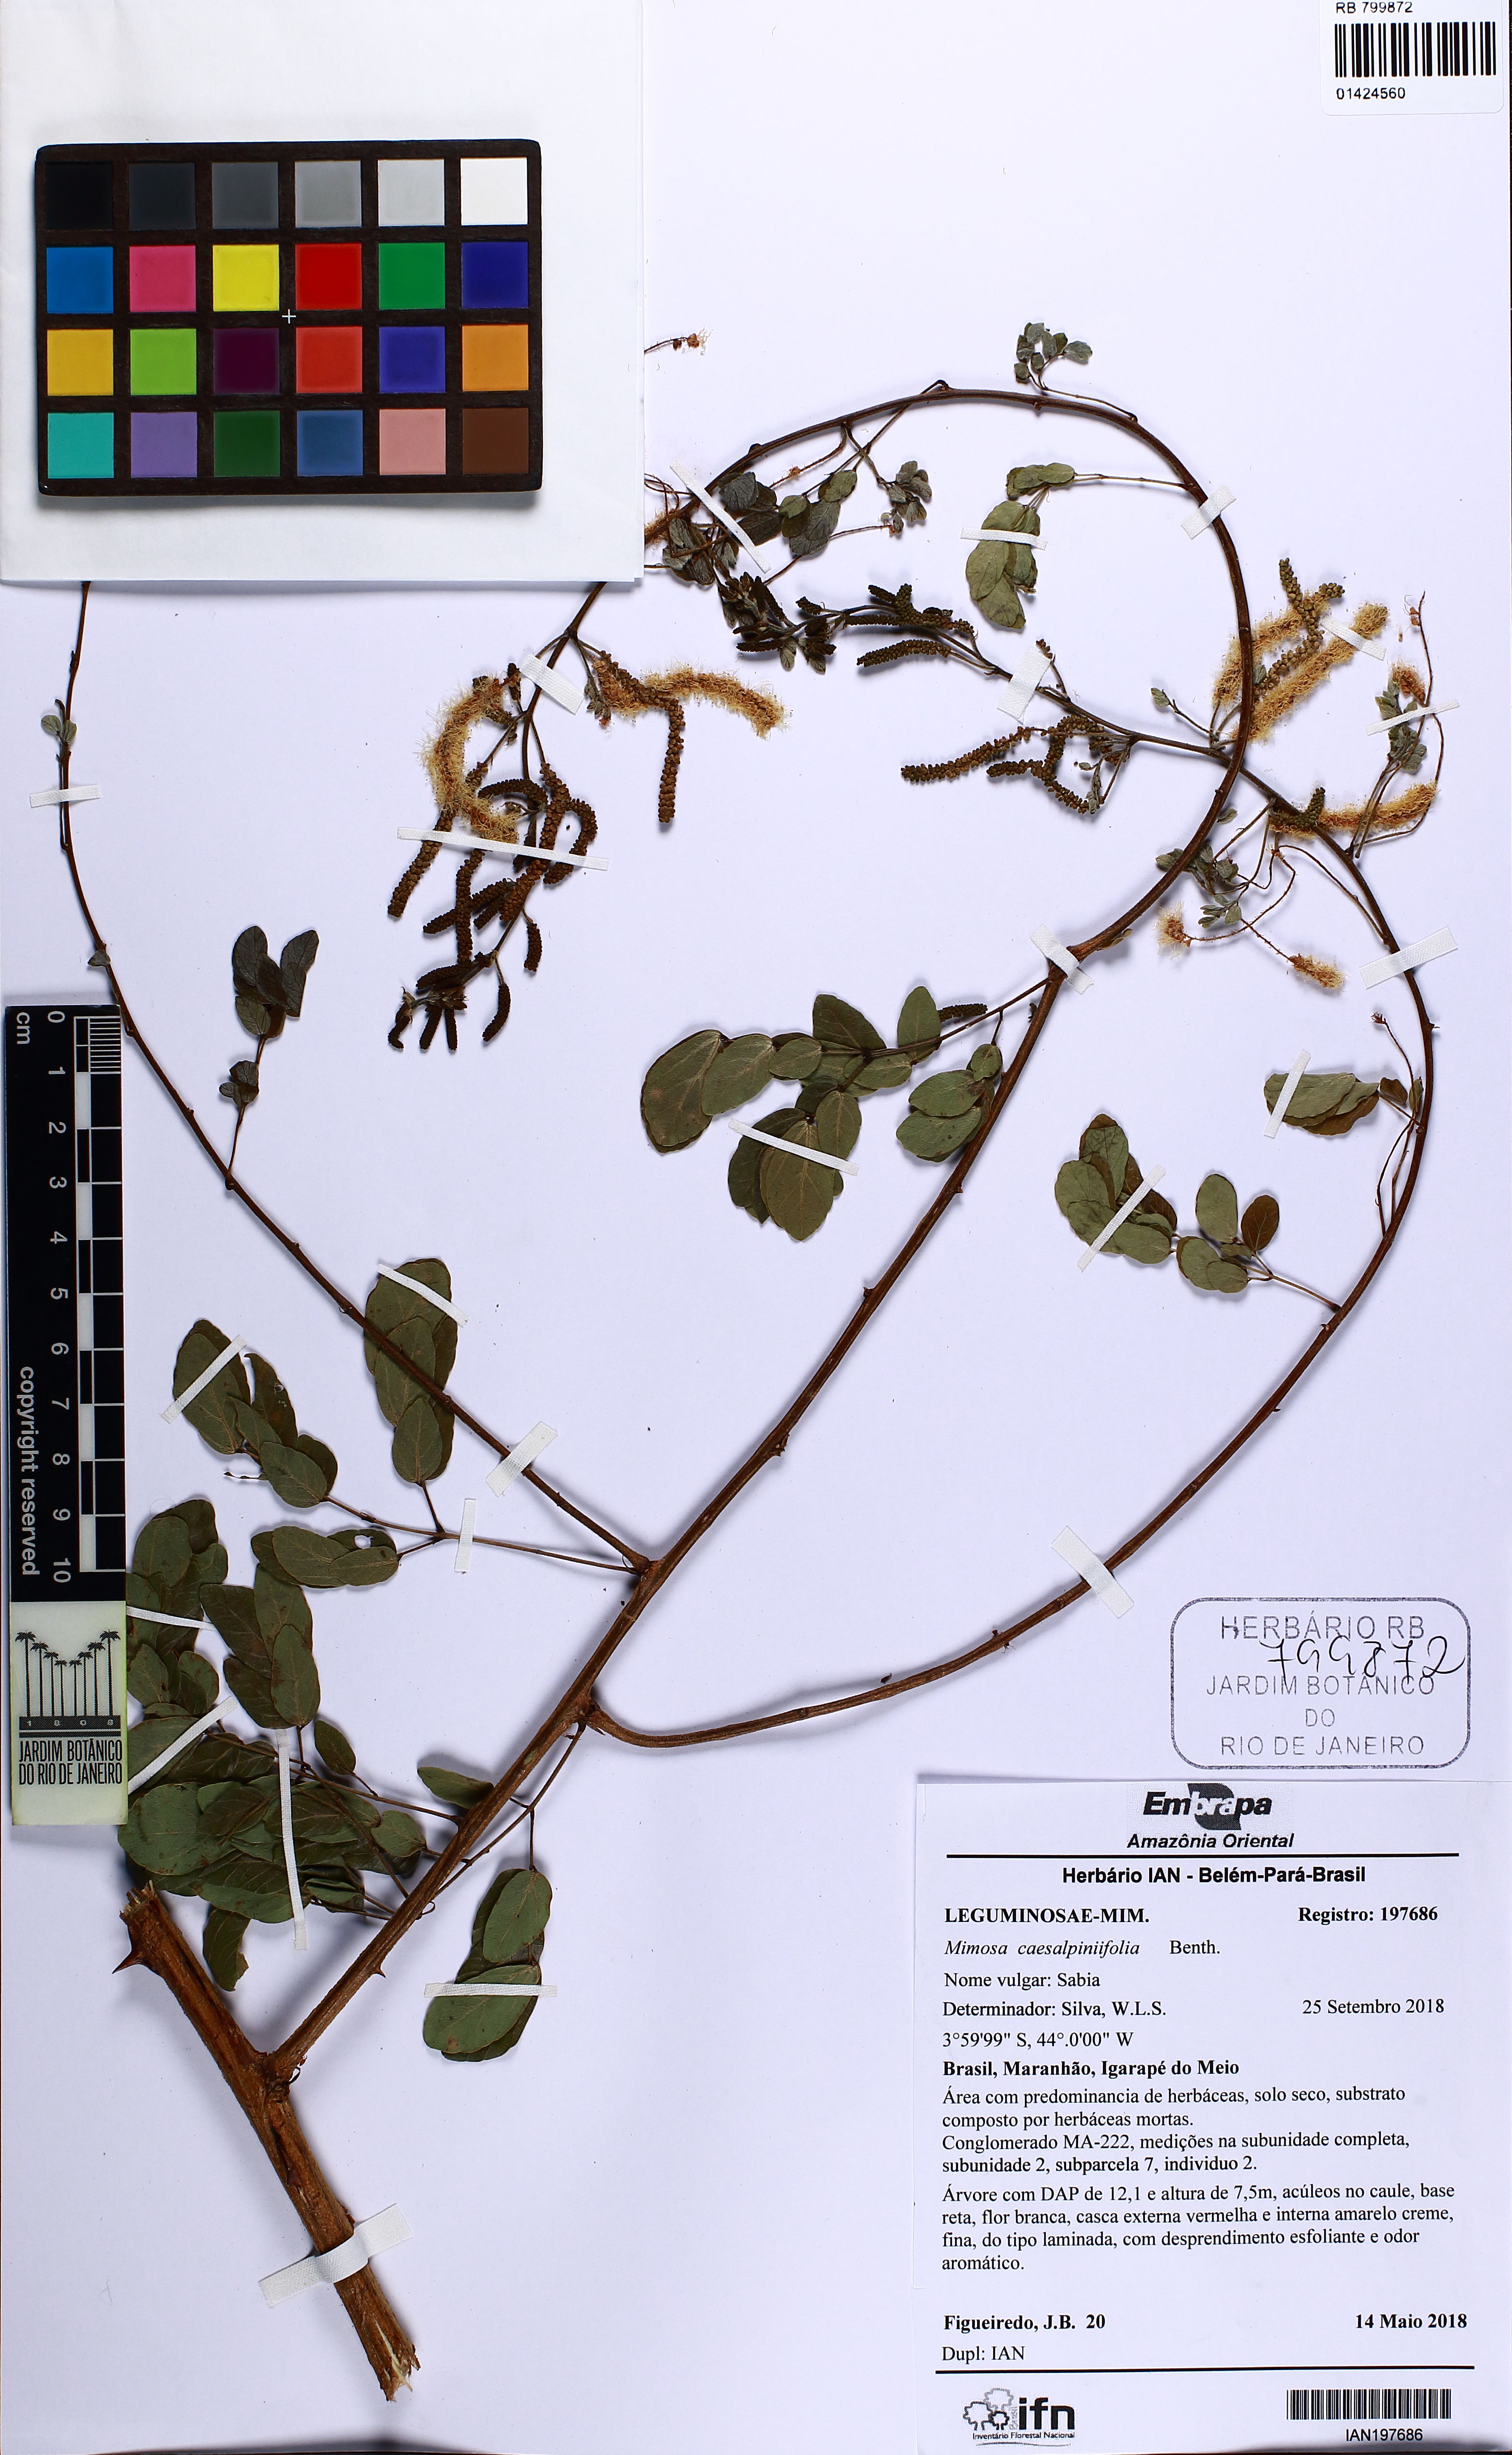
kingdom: Plantae
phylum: Tracheophyta
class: Magnoliopsida
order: Fabales
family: Fabaceae
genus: Mimosa
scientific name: Mimosa caesalpiniifolia
